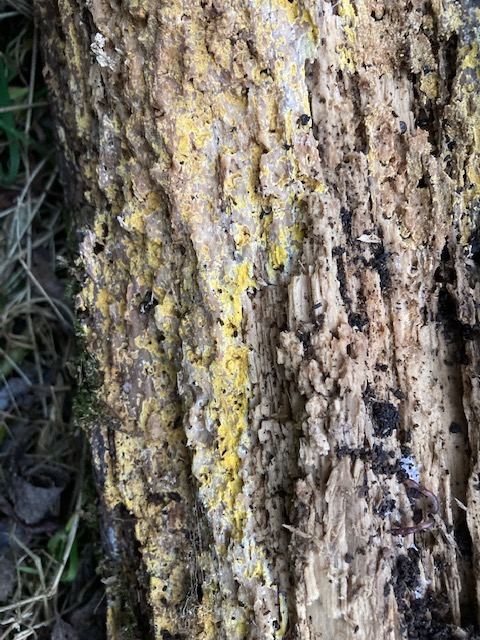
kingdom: Fungi
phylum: Basidiomycota
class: Agaricomycetes
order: Polyporales
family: Meruliaceae
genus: Phlebiodontia
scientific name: Phlebiodontia subochracea
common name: svovl-åresvamp
